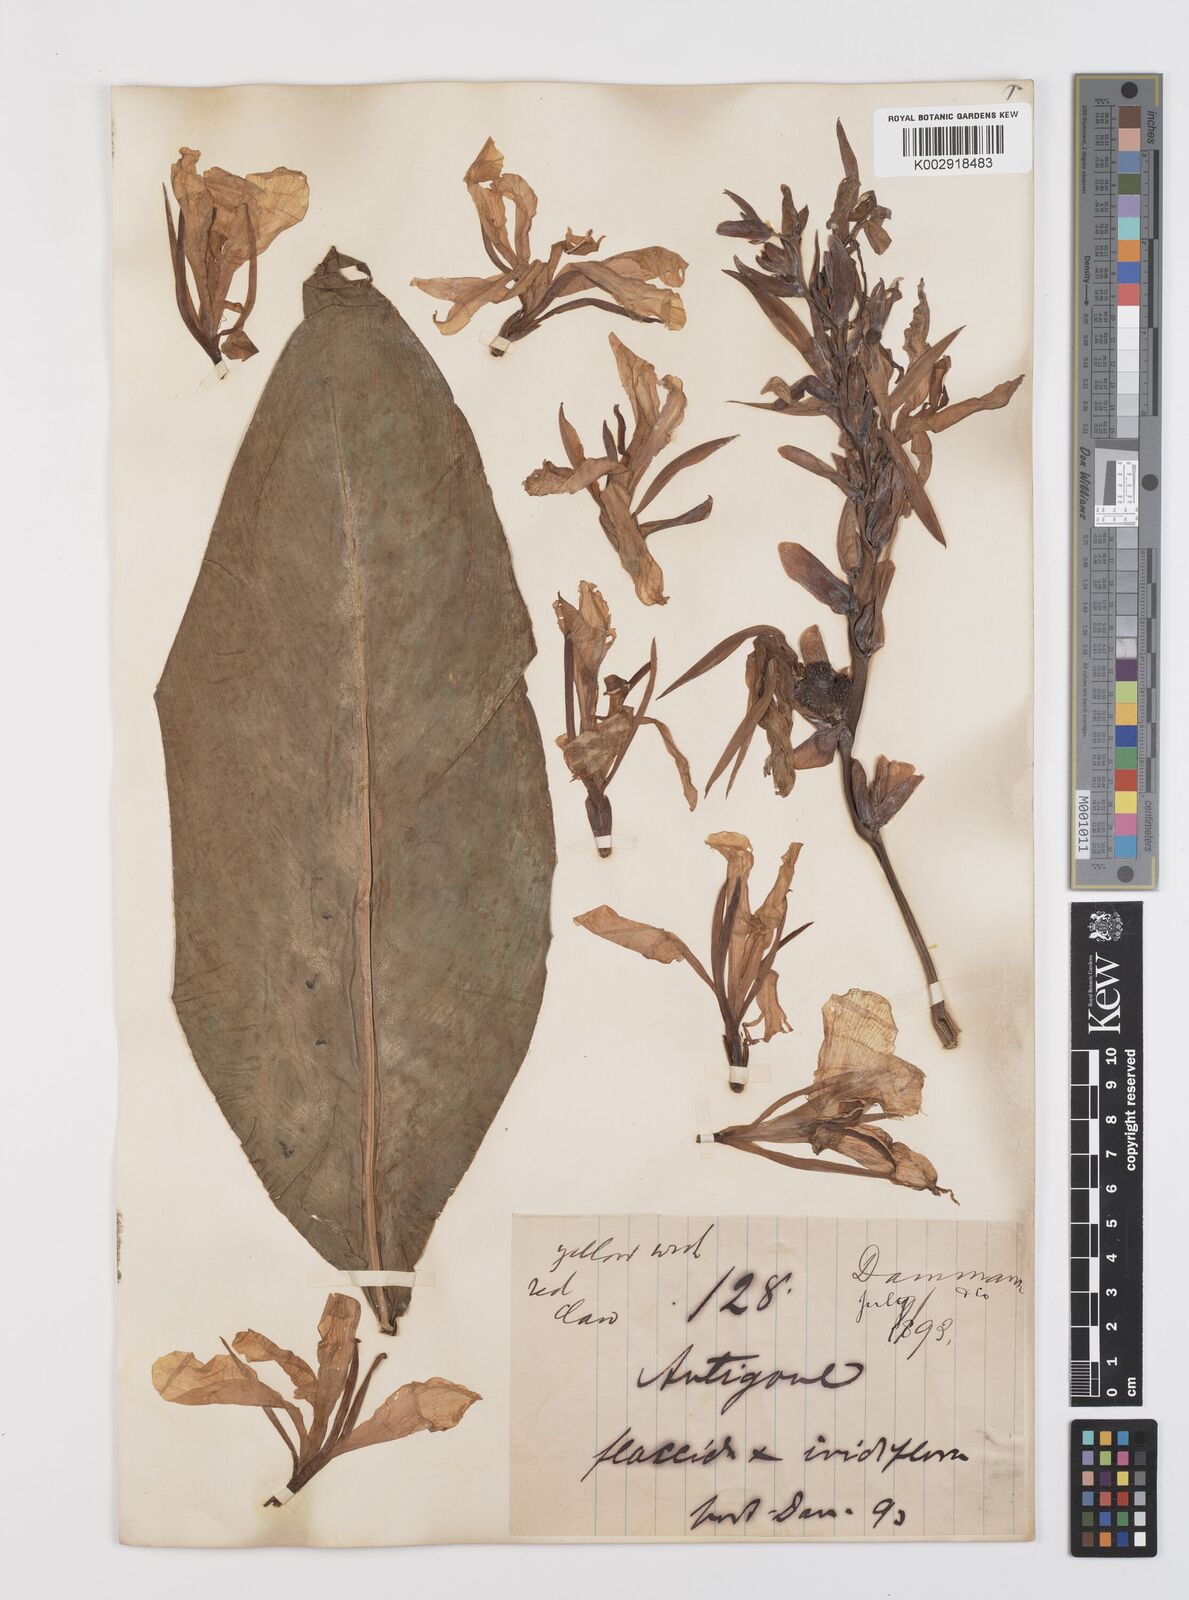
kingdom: Plantae
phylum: Tracheophyta
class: Liliopsida
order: Zingiberales
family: Cannaceae
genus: Canna
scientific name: Canna
